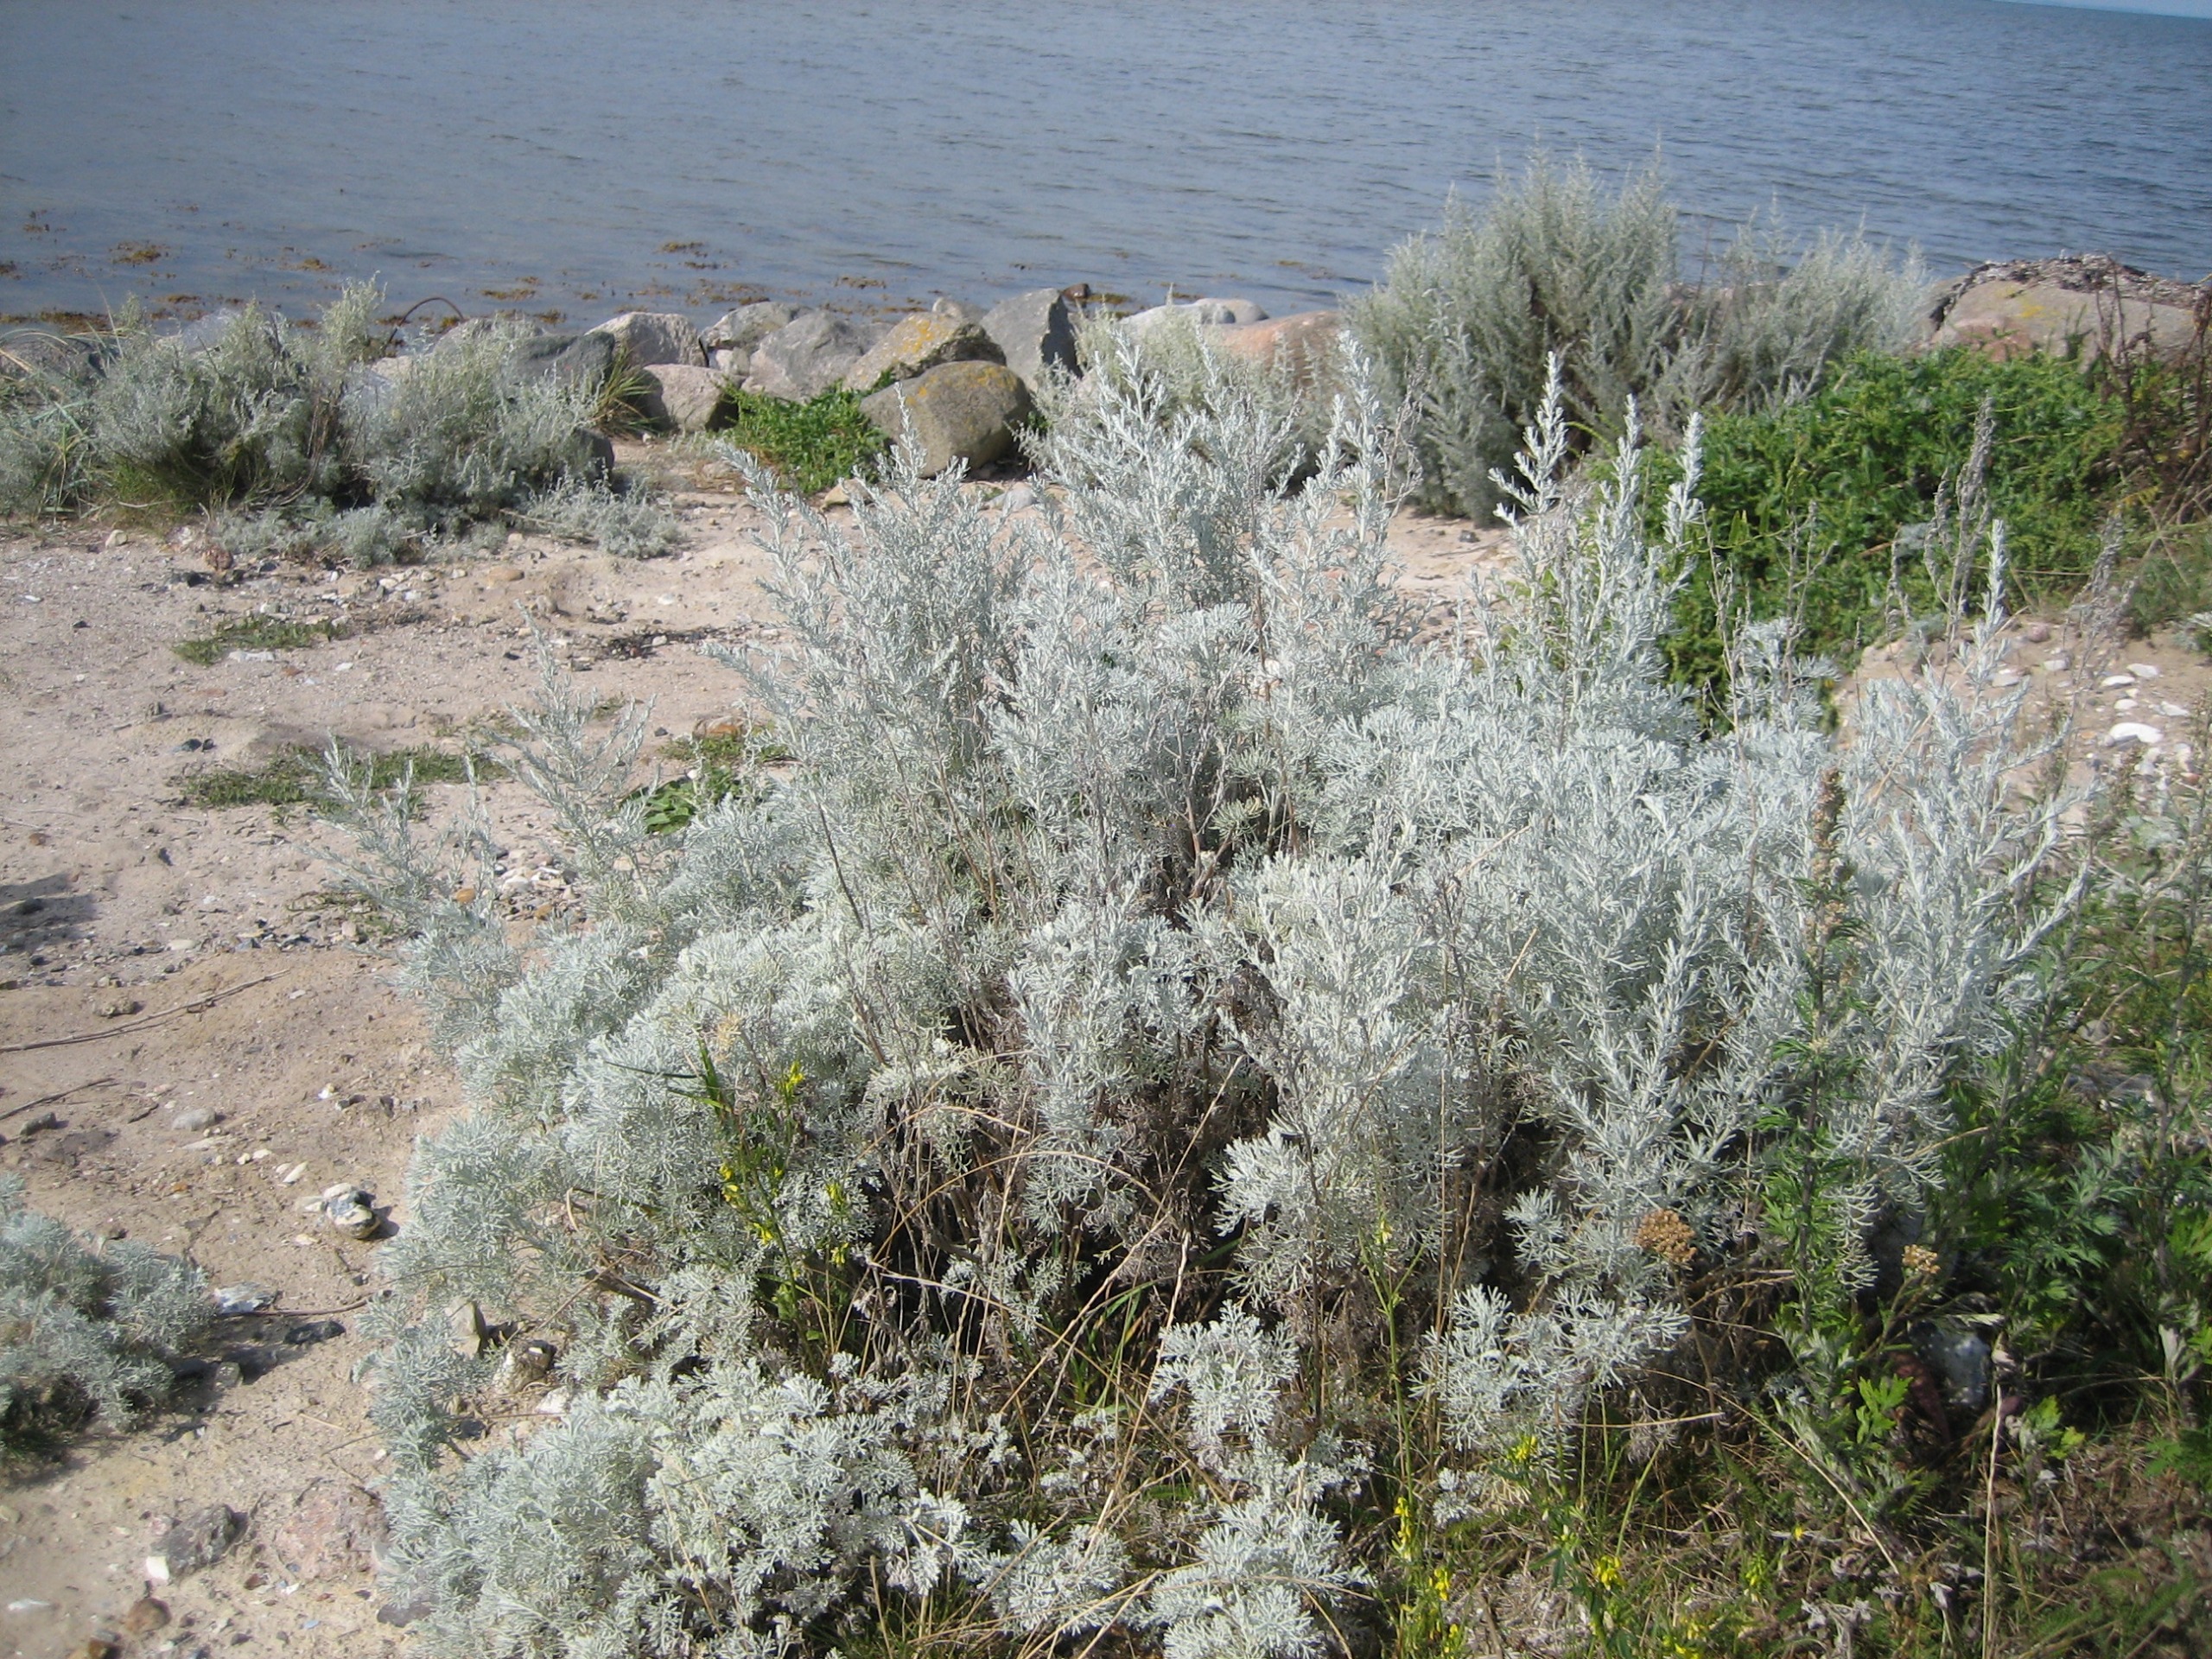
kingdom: Plantae
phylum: Tracheophyta
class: Magnoliopsida
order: Asterales
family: Asteraceae
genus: Artemisia
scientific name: Artemisia maritima
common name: Strandmalurt
